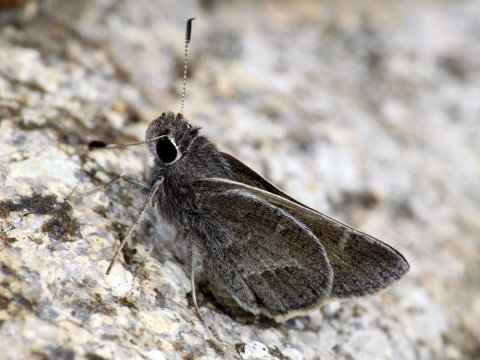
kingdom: Animalia
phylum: Arthropoda
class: Insecta
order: Lepidoptera
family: Hesperiidae
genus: Atrytonopsis
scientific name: Atrytonopsis pittacus
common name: White-barred Skipper
